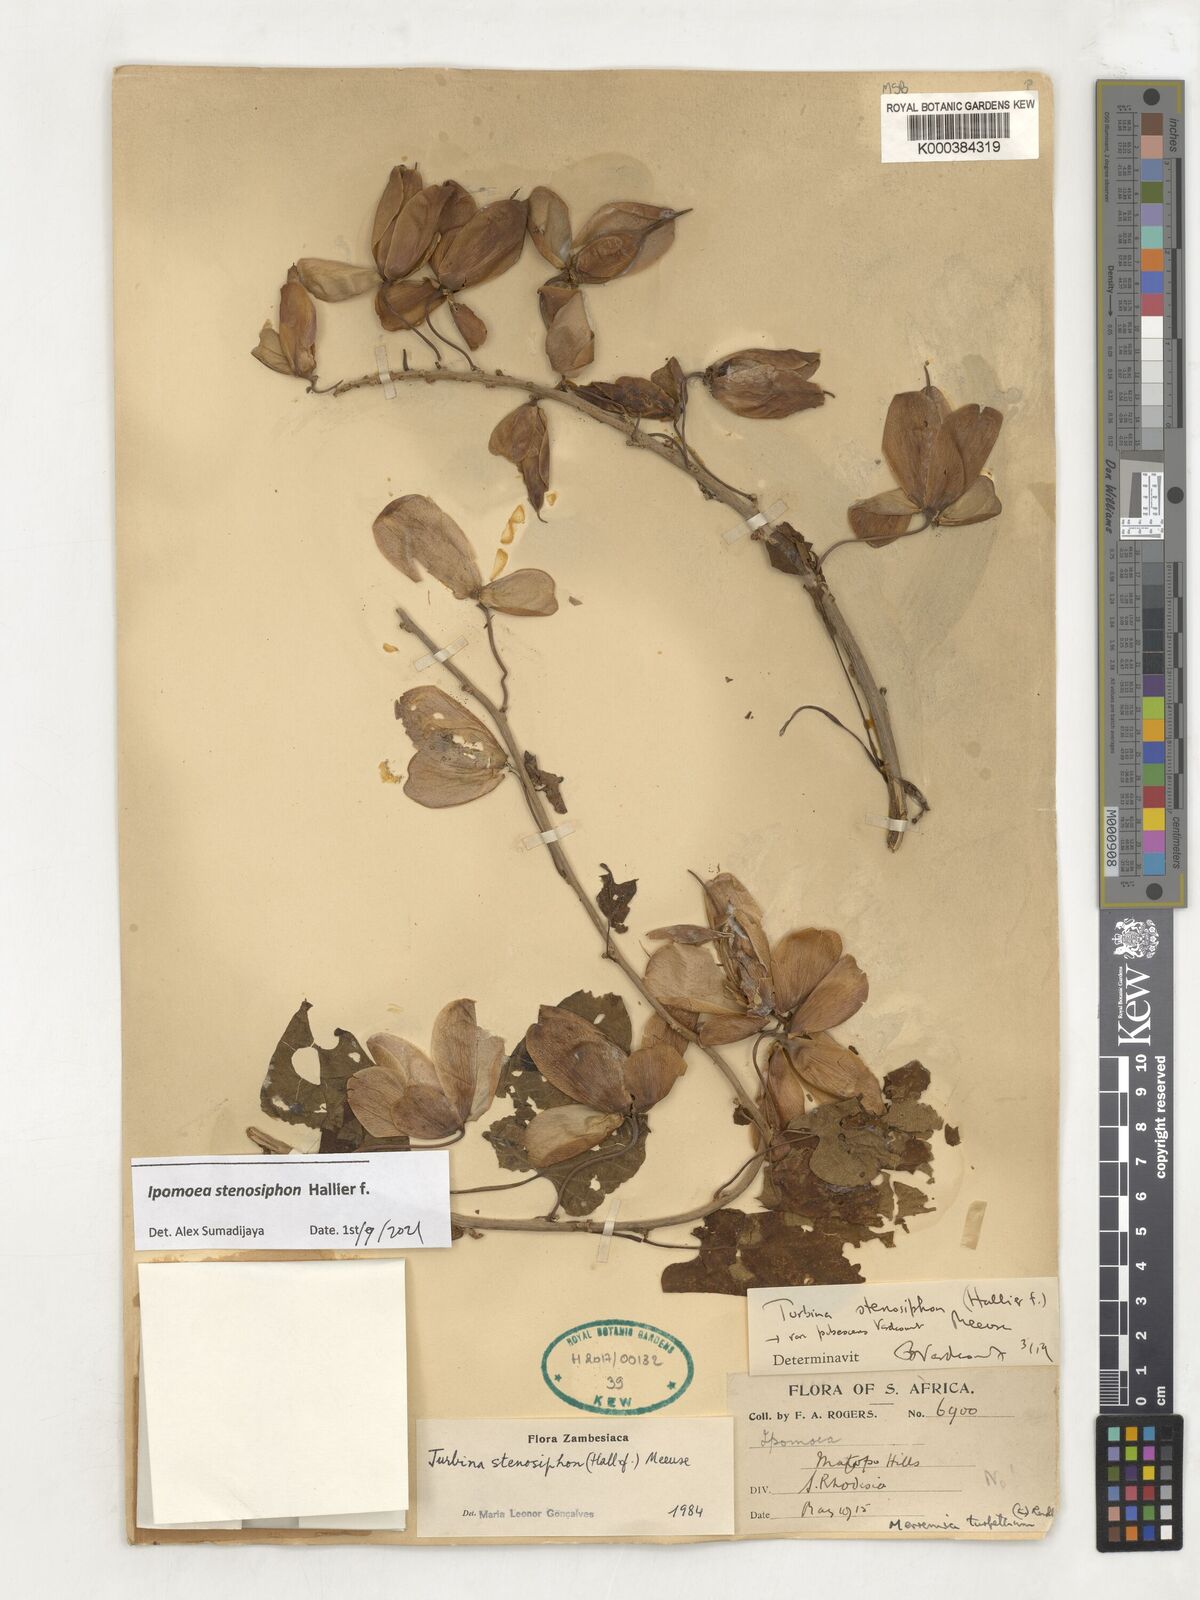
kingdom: Plantae
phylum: Tracheophyta
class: Magnoliopsida
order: Solanales
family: Convolvulaceae
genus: Ipomoea
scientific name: Ipomoea stenosiphon
